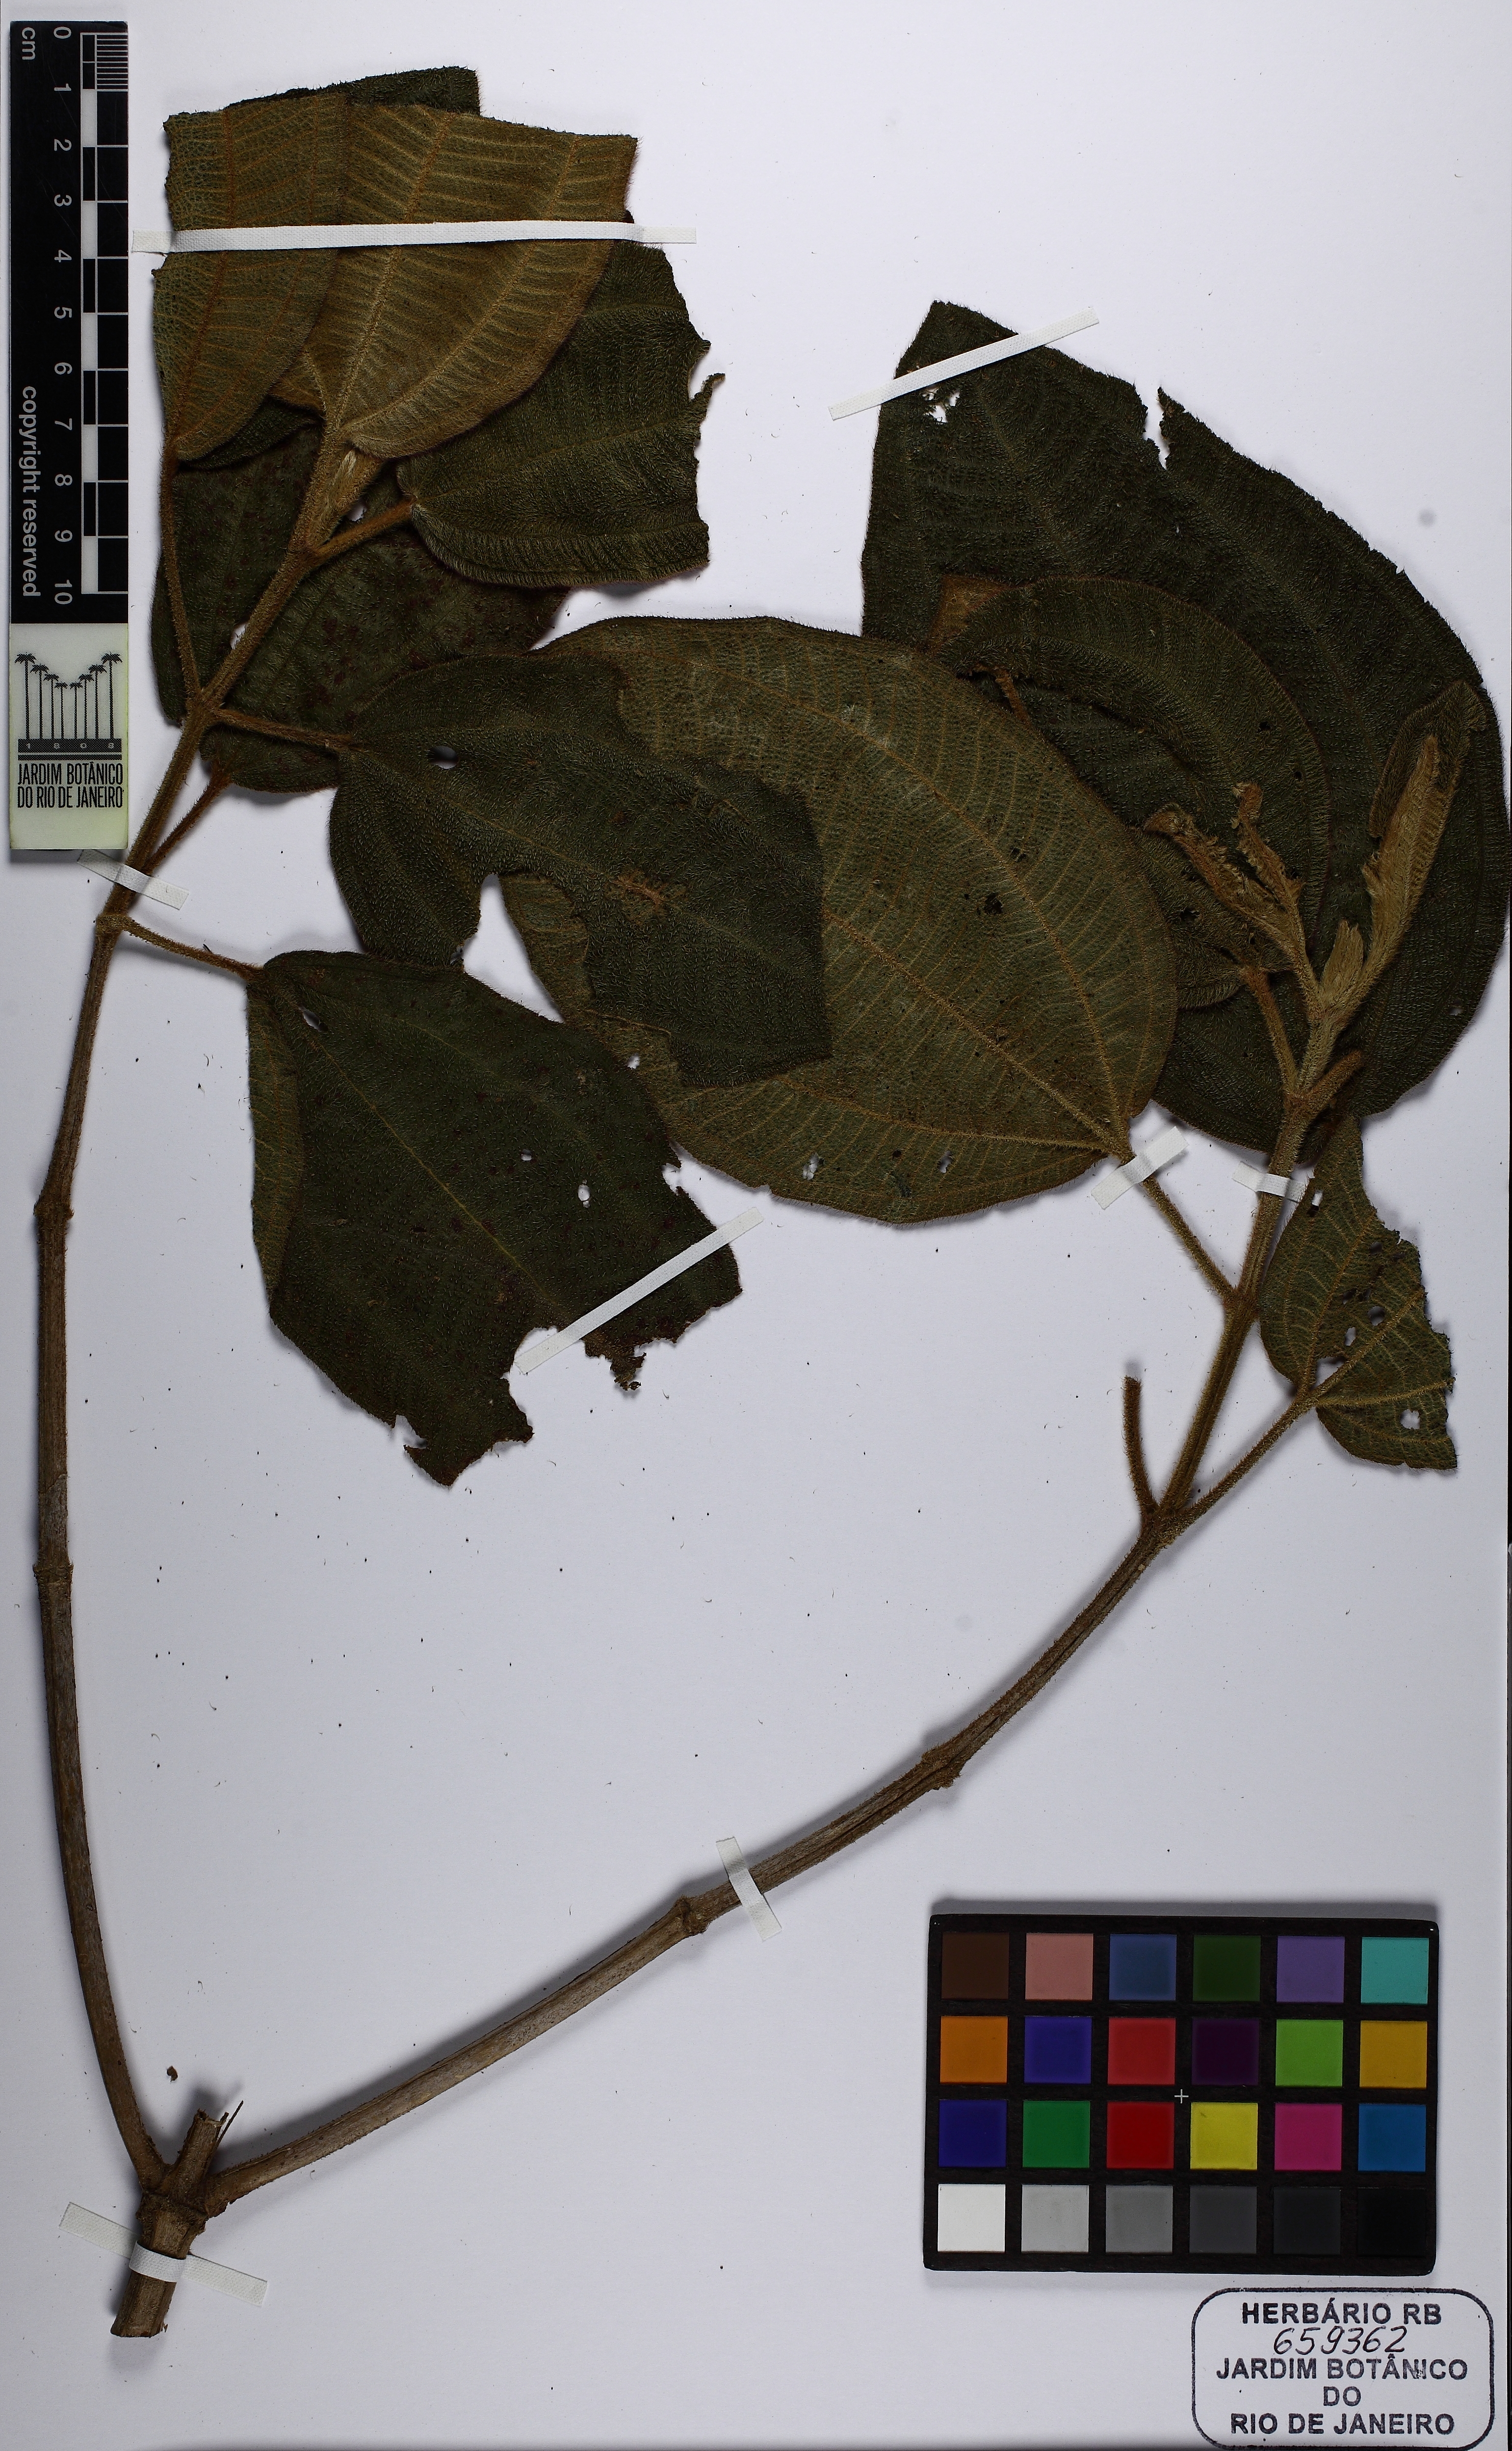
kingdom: Plantae
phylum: Tracheophyta
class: Magnoliopsida
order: Myrtales
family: Melastomataceae
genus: Pleroma
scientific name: Pleroma heteromallum
